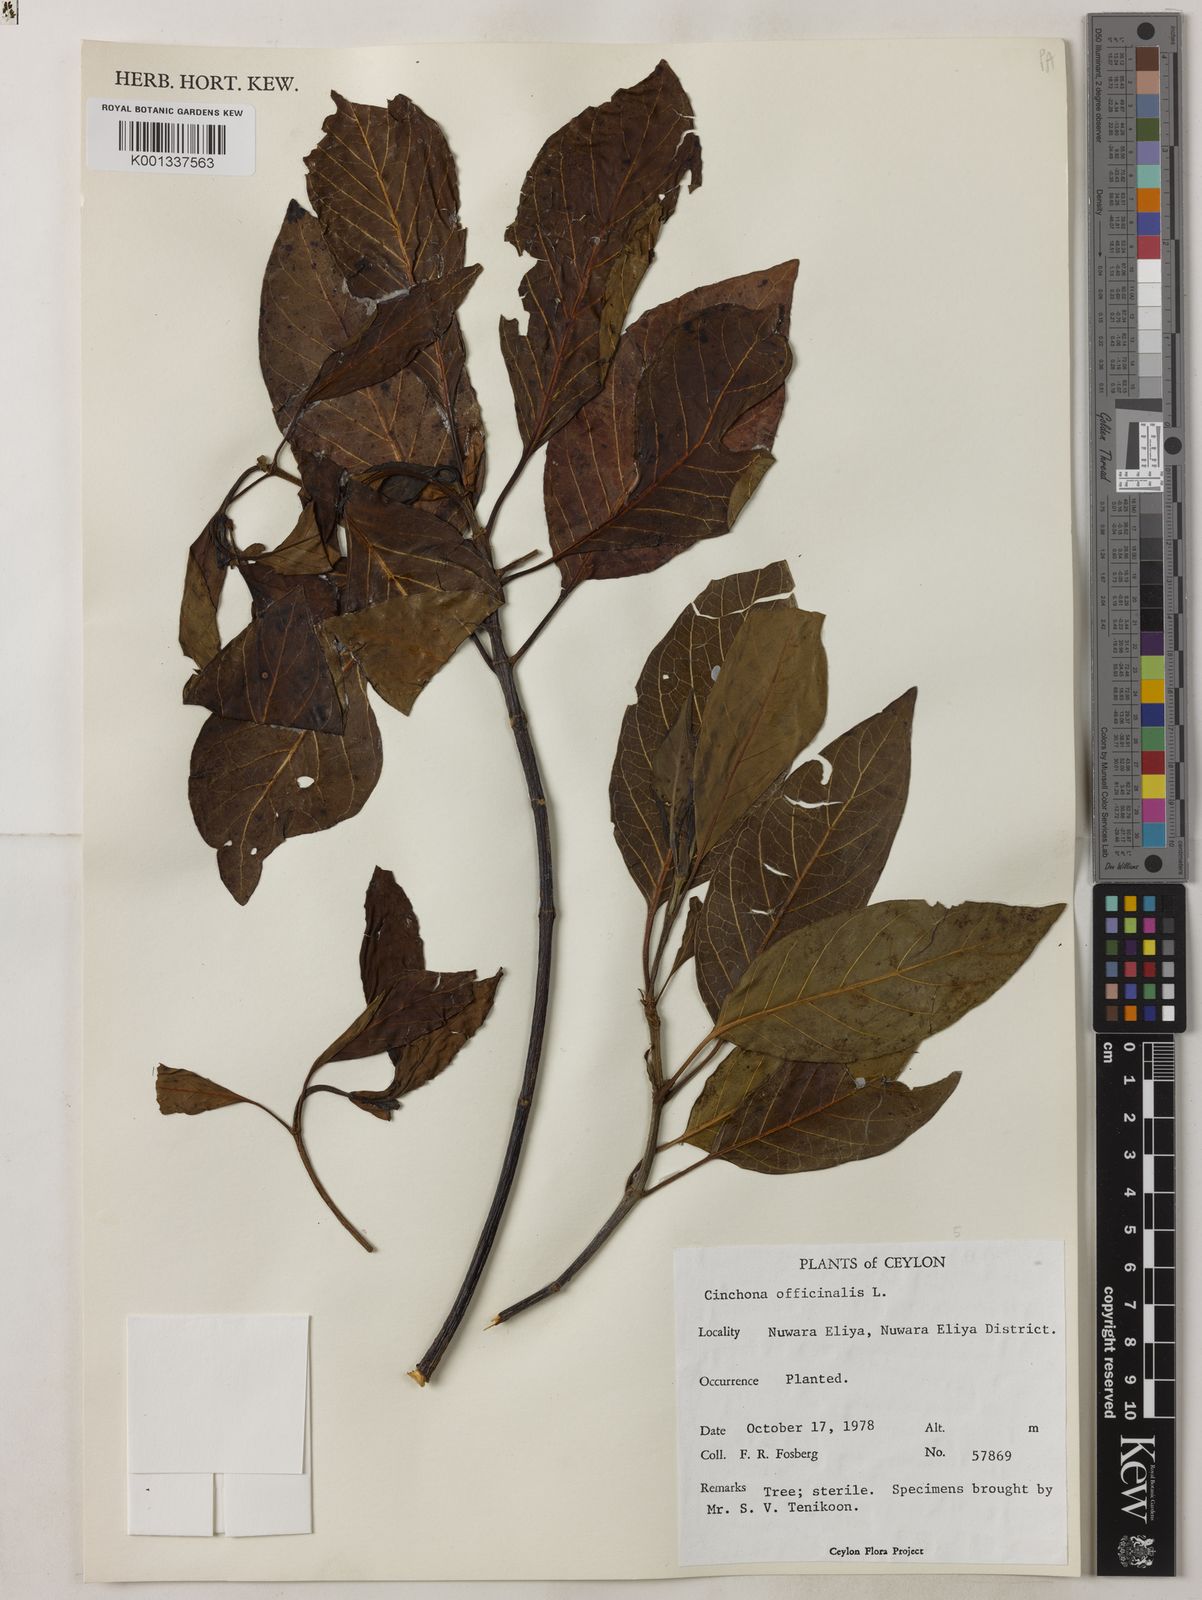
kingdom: Plantae
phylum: Tracheophyta
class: Magnoliopsida
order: Gentianales
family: Rubiaceae
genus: Cinchona
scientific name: Cinchona officinalis
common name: Lojabark
